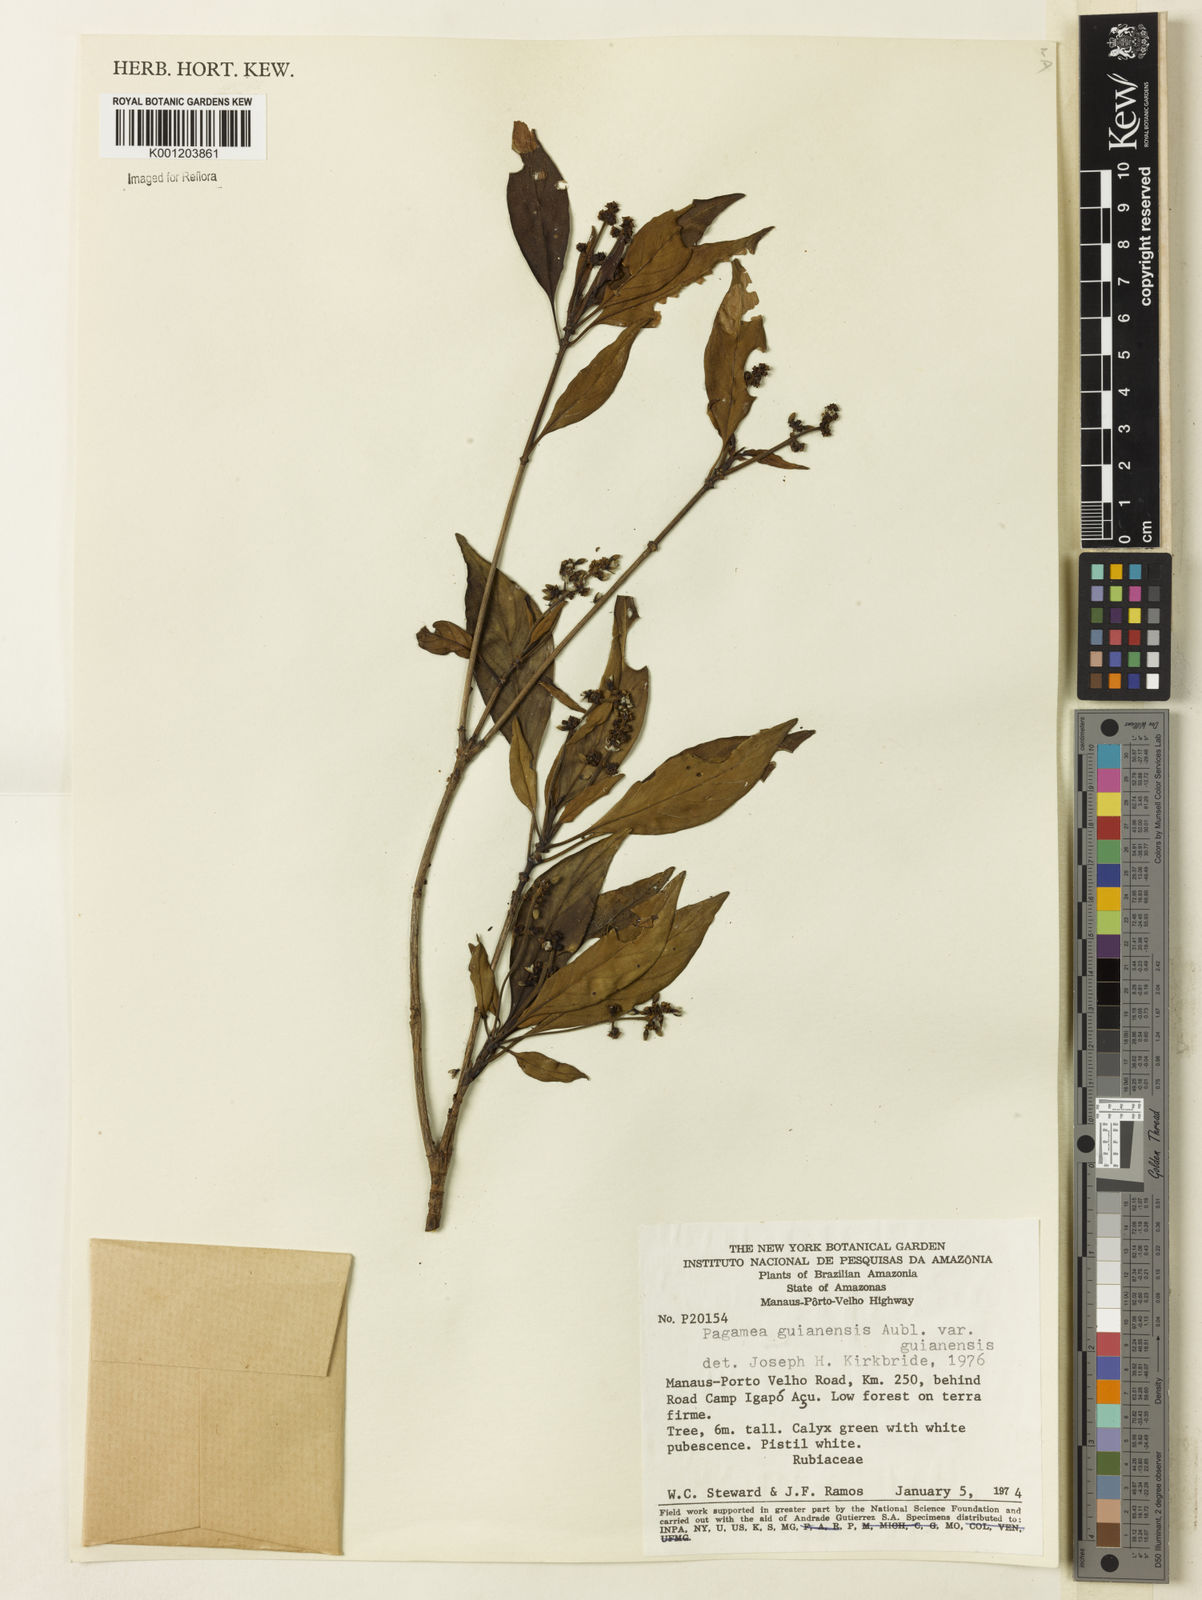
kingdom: Plantae
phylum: Tracheophyta
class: Magnoliopsida
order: Gentianales
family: Rubiaceae
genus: Pagamea
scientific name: Pagamea guianensis
